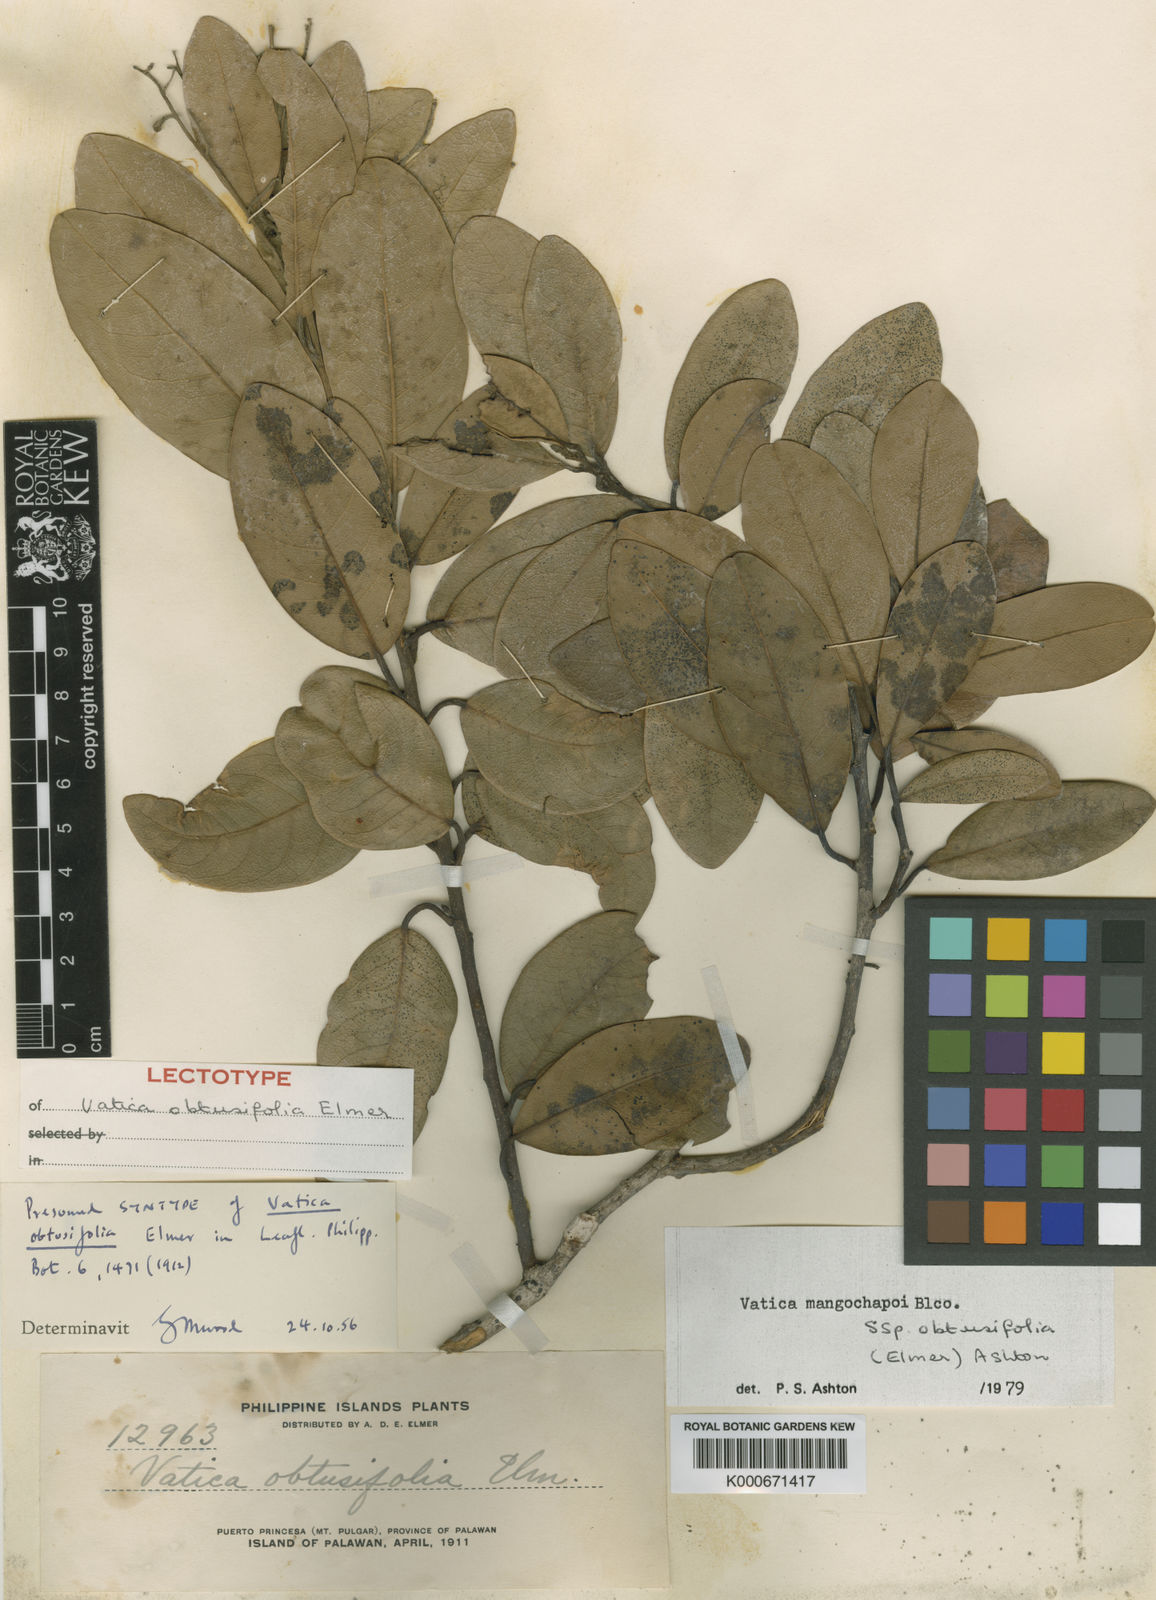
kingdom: Plantae
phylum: Tracheophyta
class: Magnoliopsida
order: Malvales
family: Dipterocarpaceae
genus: Vatica
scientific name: Vatica mangachapoi
